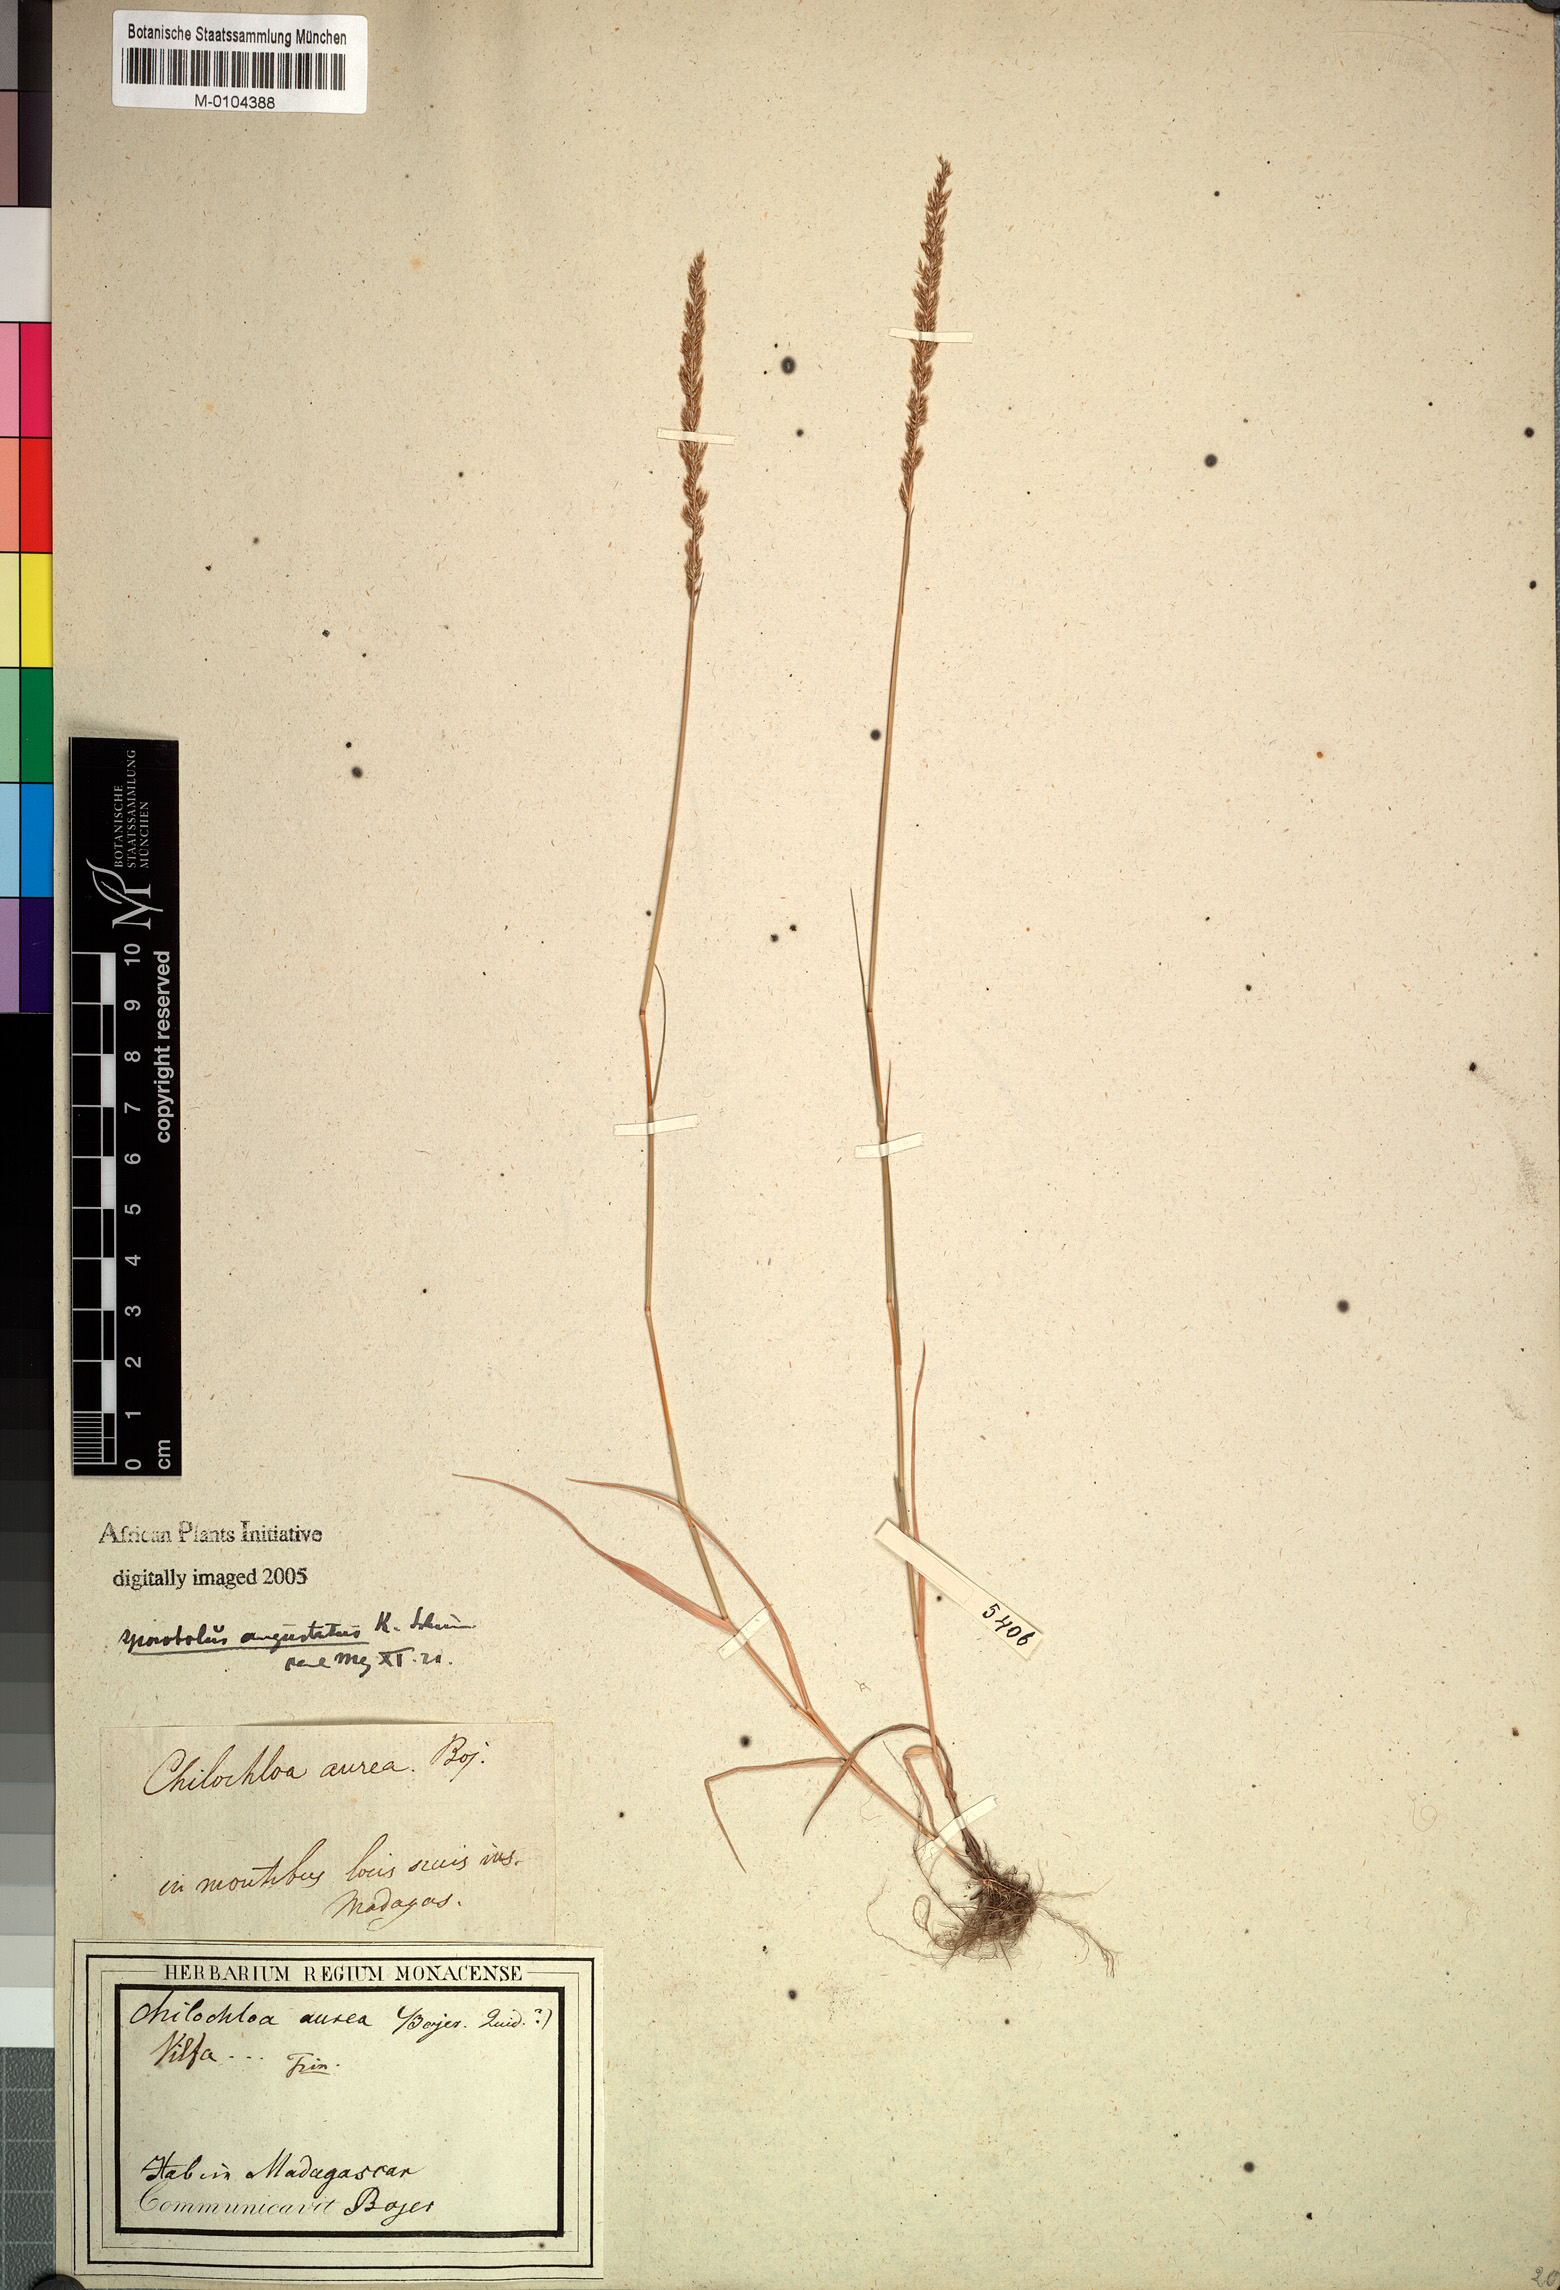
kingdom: Plantae
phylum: Tracheophyta
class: Liliopsida
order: Poales
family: Poaceae
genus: Sporobolus
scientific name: Sporobolus
